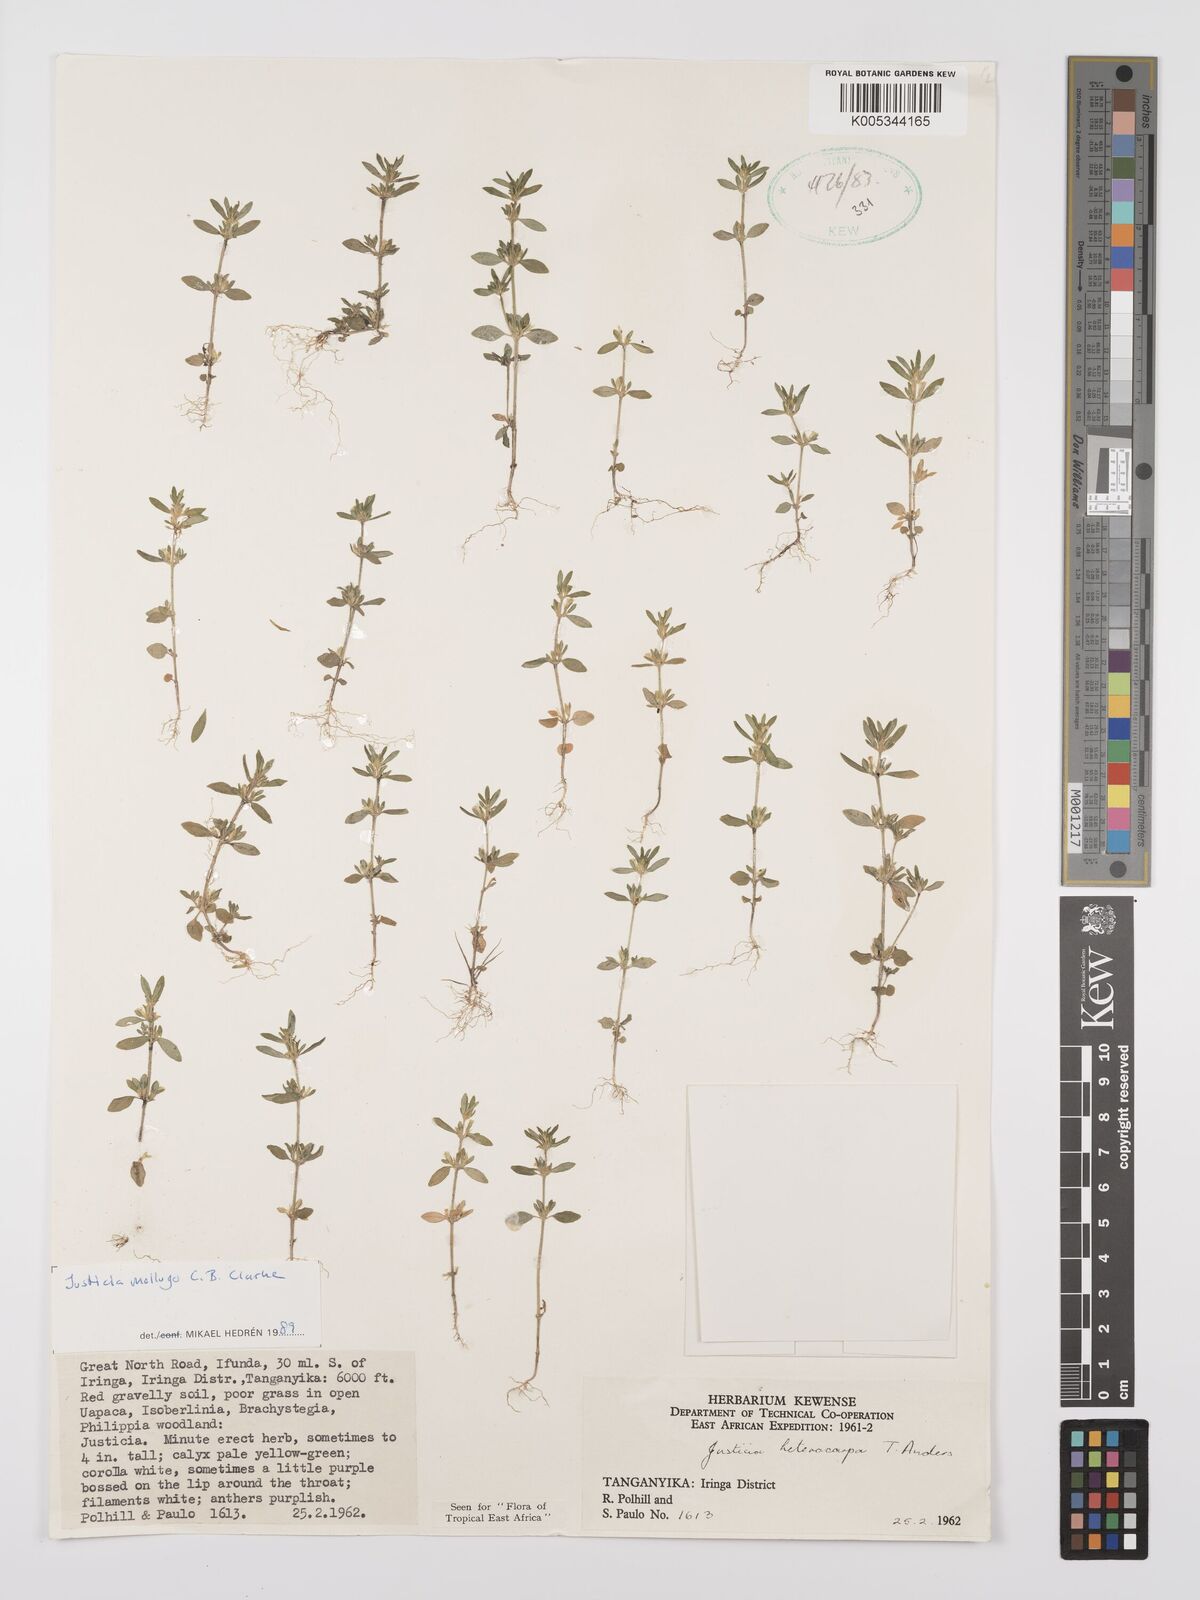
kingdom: Plantae
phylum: Tracheophyta
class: Magnoliopsida
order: Lamiales
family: Acanthaceae
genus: Justicia
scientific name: Justicia mollugo
